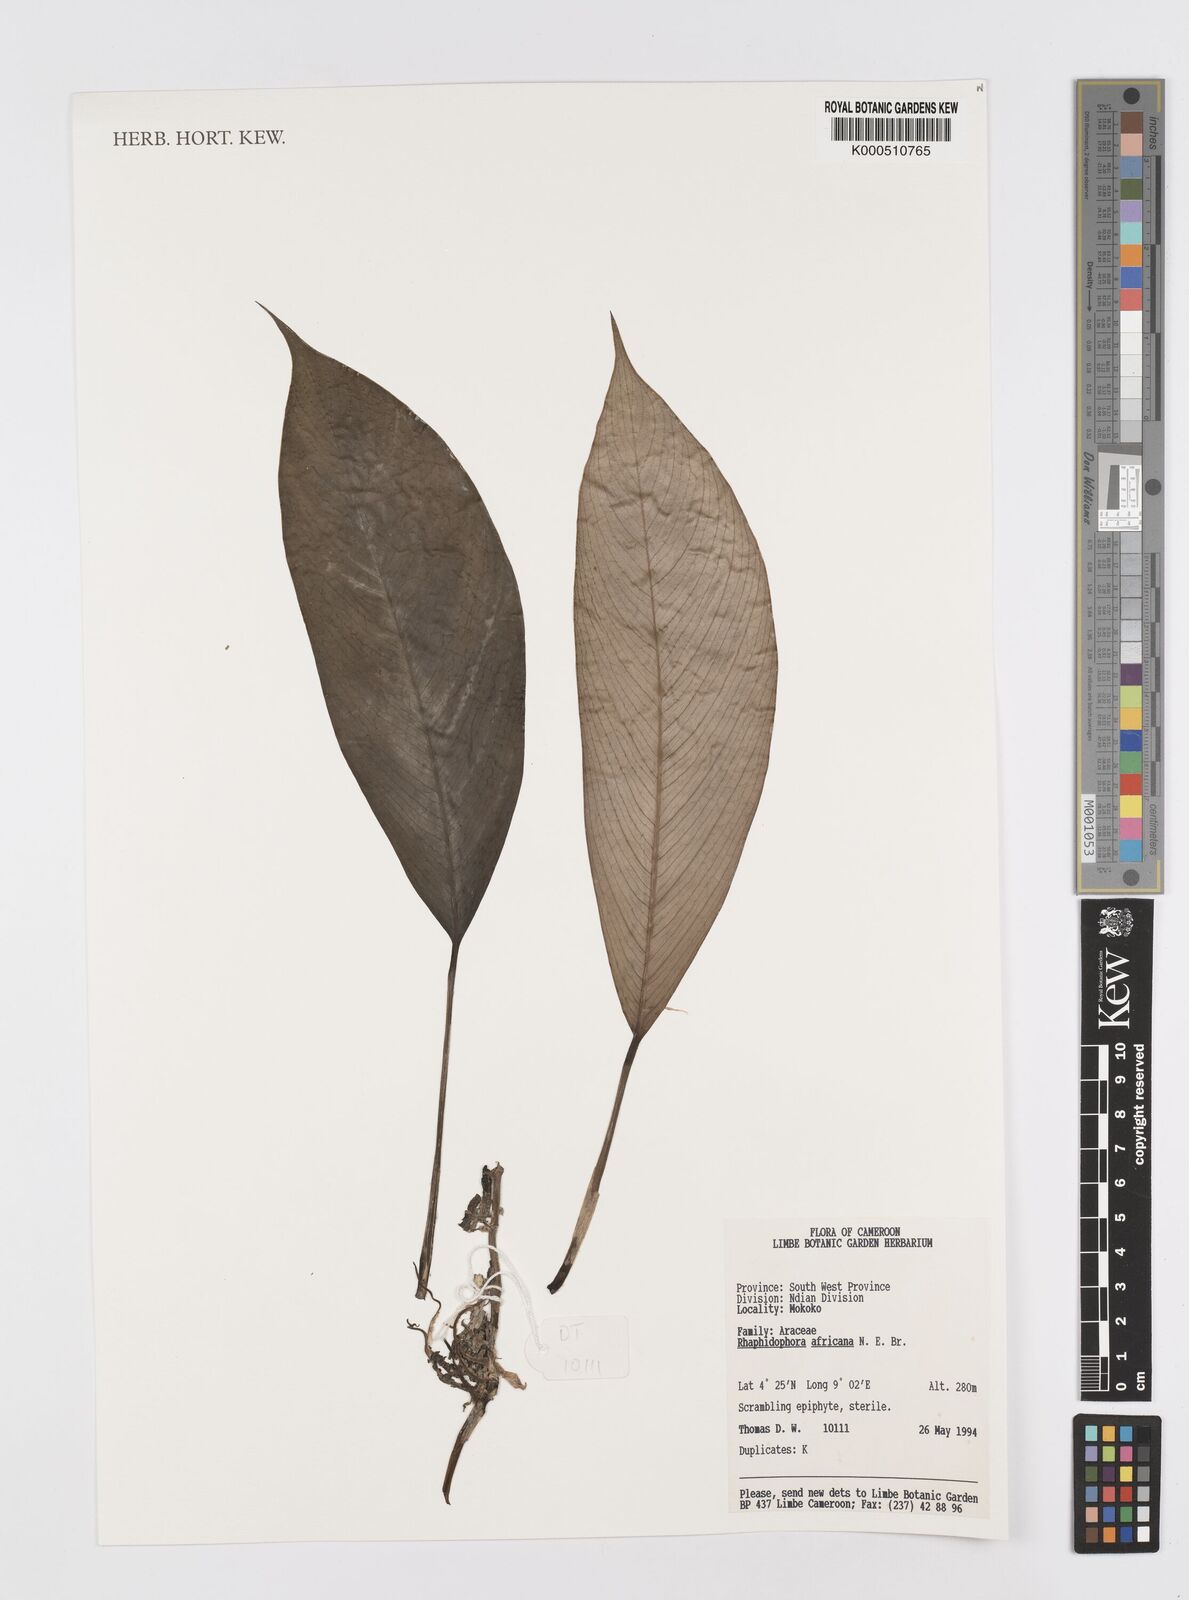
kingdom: Plantae
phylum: Tracheophyta
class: Liliopsida
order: Alismatales
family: Araceae
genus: Rhaphidophora
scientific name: Rhaphidophora africana
